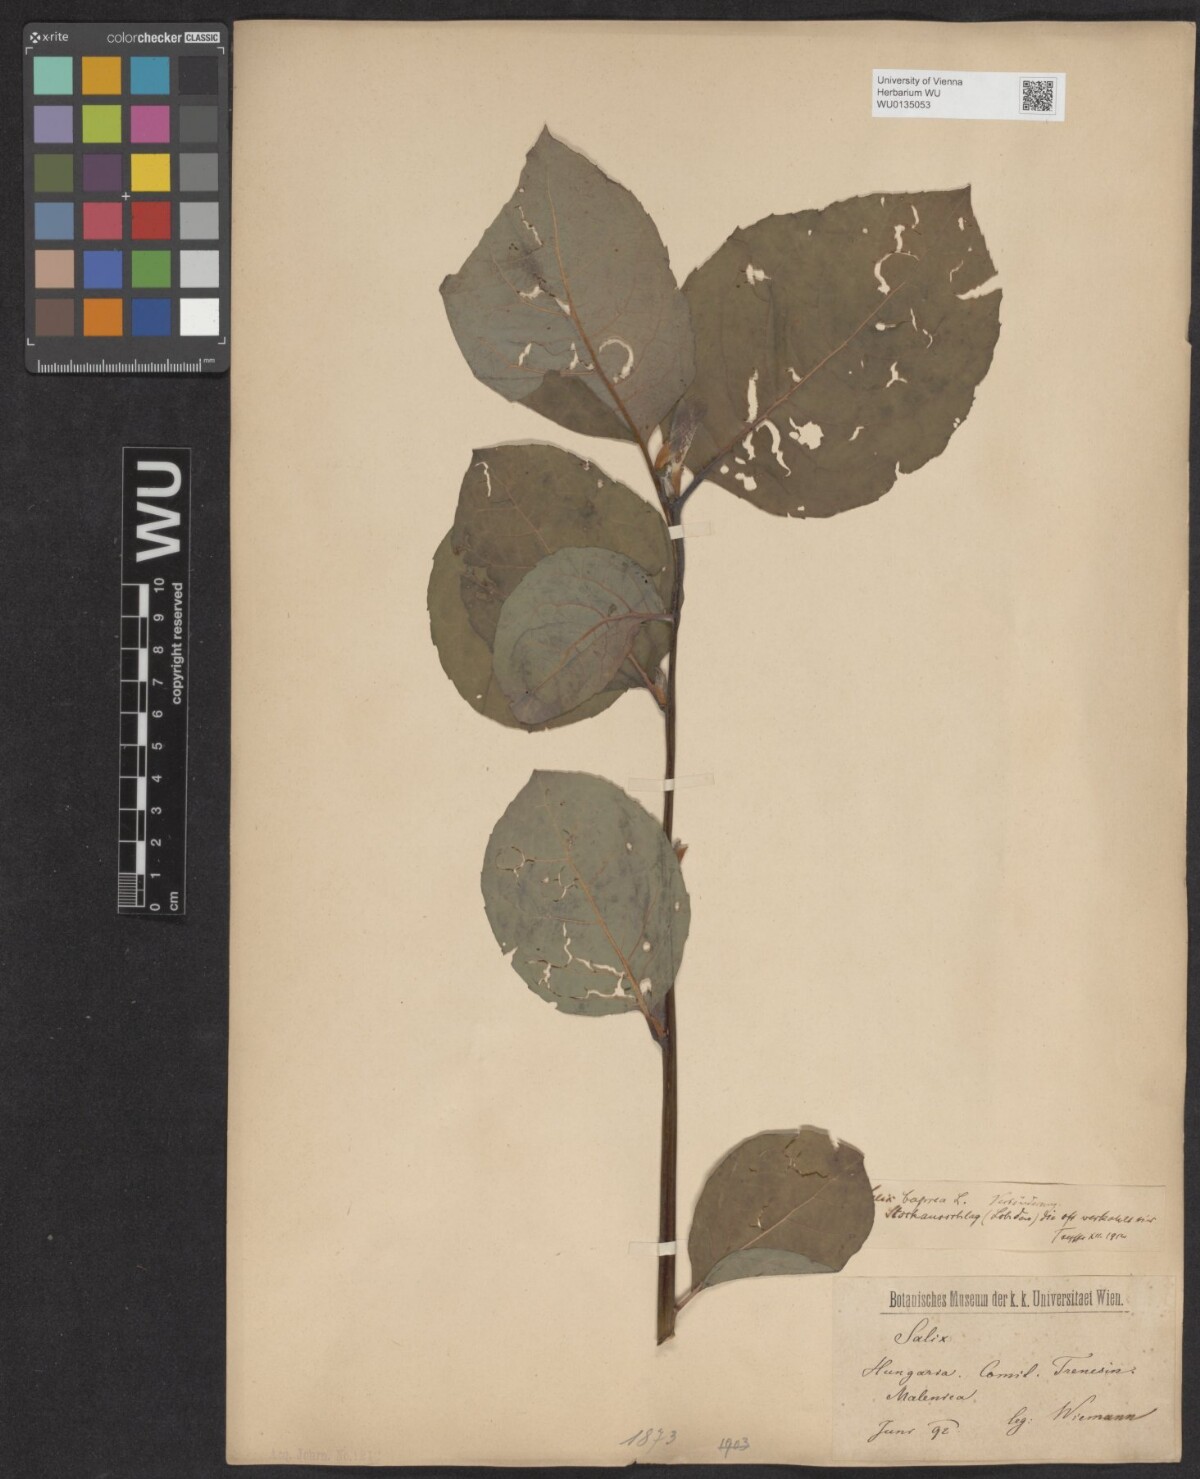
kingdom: Plantae
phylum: Tracheophyta
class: Magnoliopsida
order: Malpighiales
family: Salicaceae
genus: Salix
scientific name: Salix caprea
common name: Goat willow
